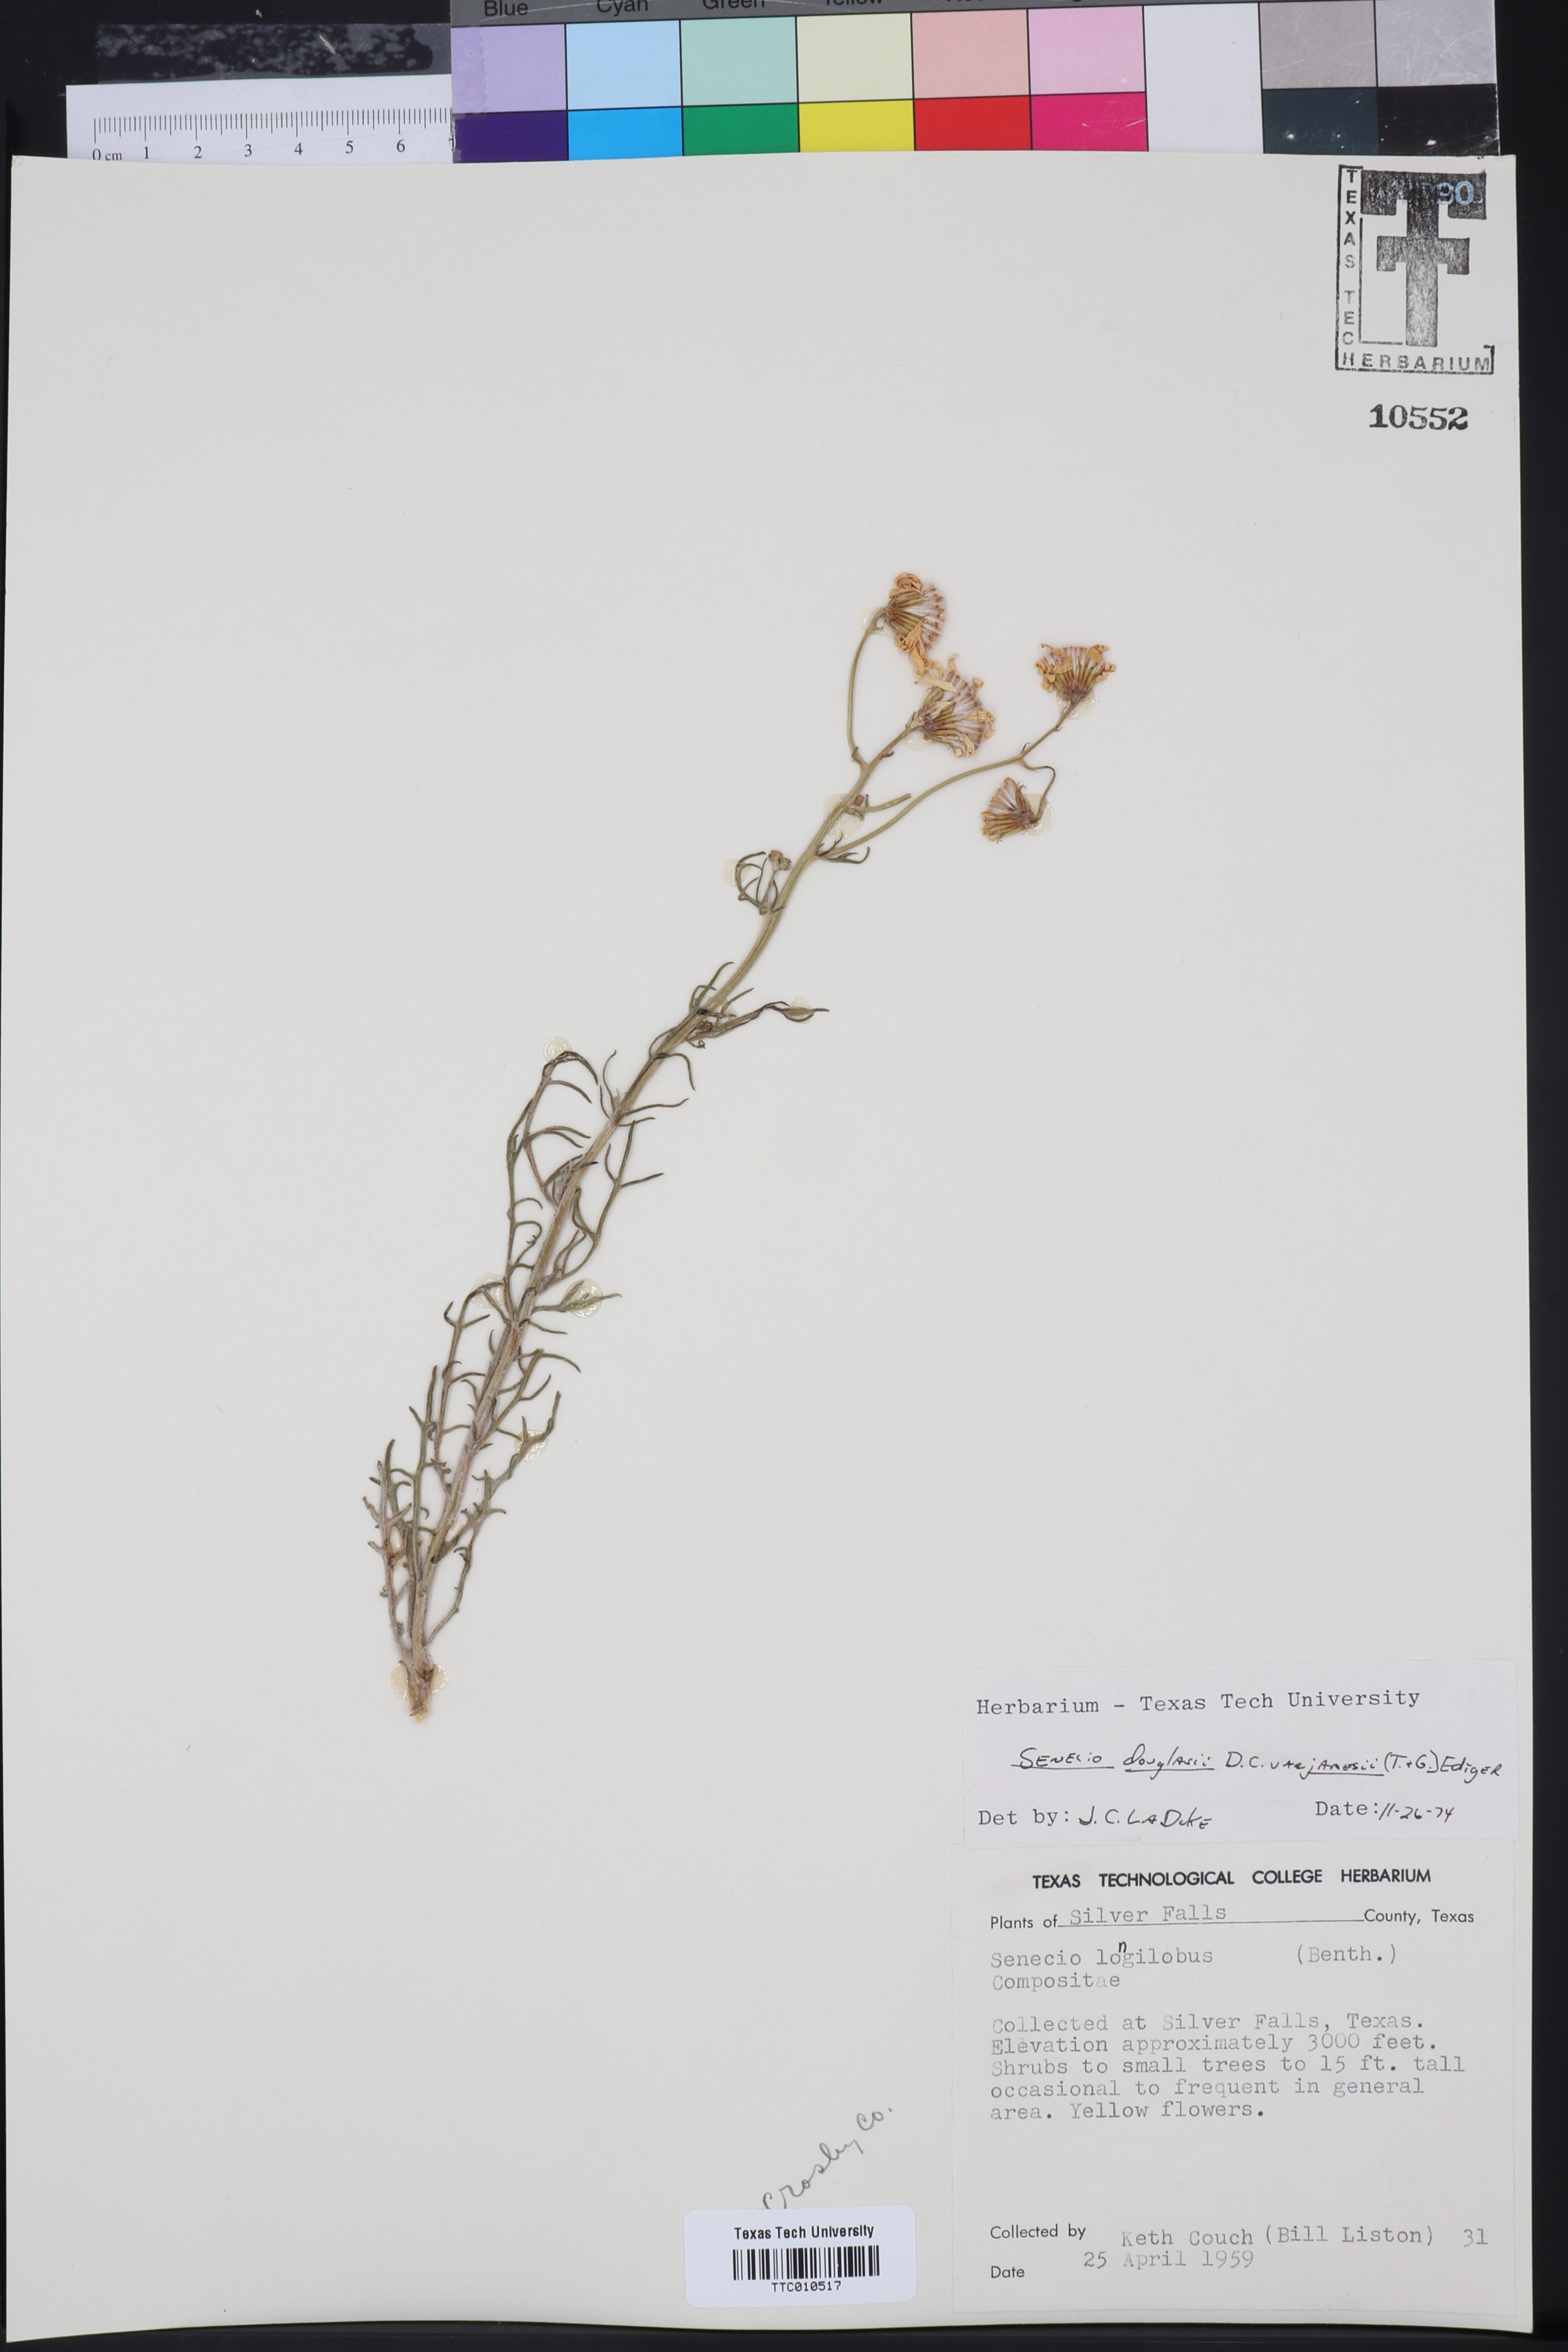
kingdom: Plantae
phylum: Tracheophyta
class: Magnoliopsida
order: Asterales
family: Asteraceae
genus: Senecio
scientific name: Senecio flaccidus
